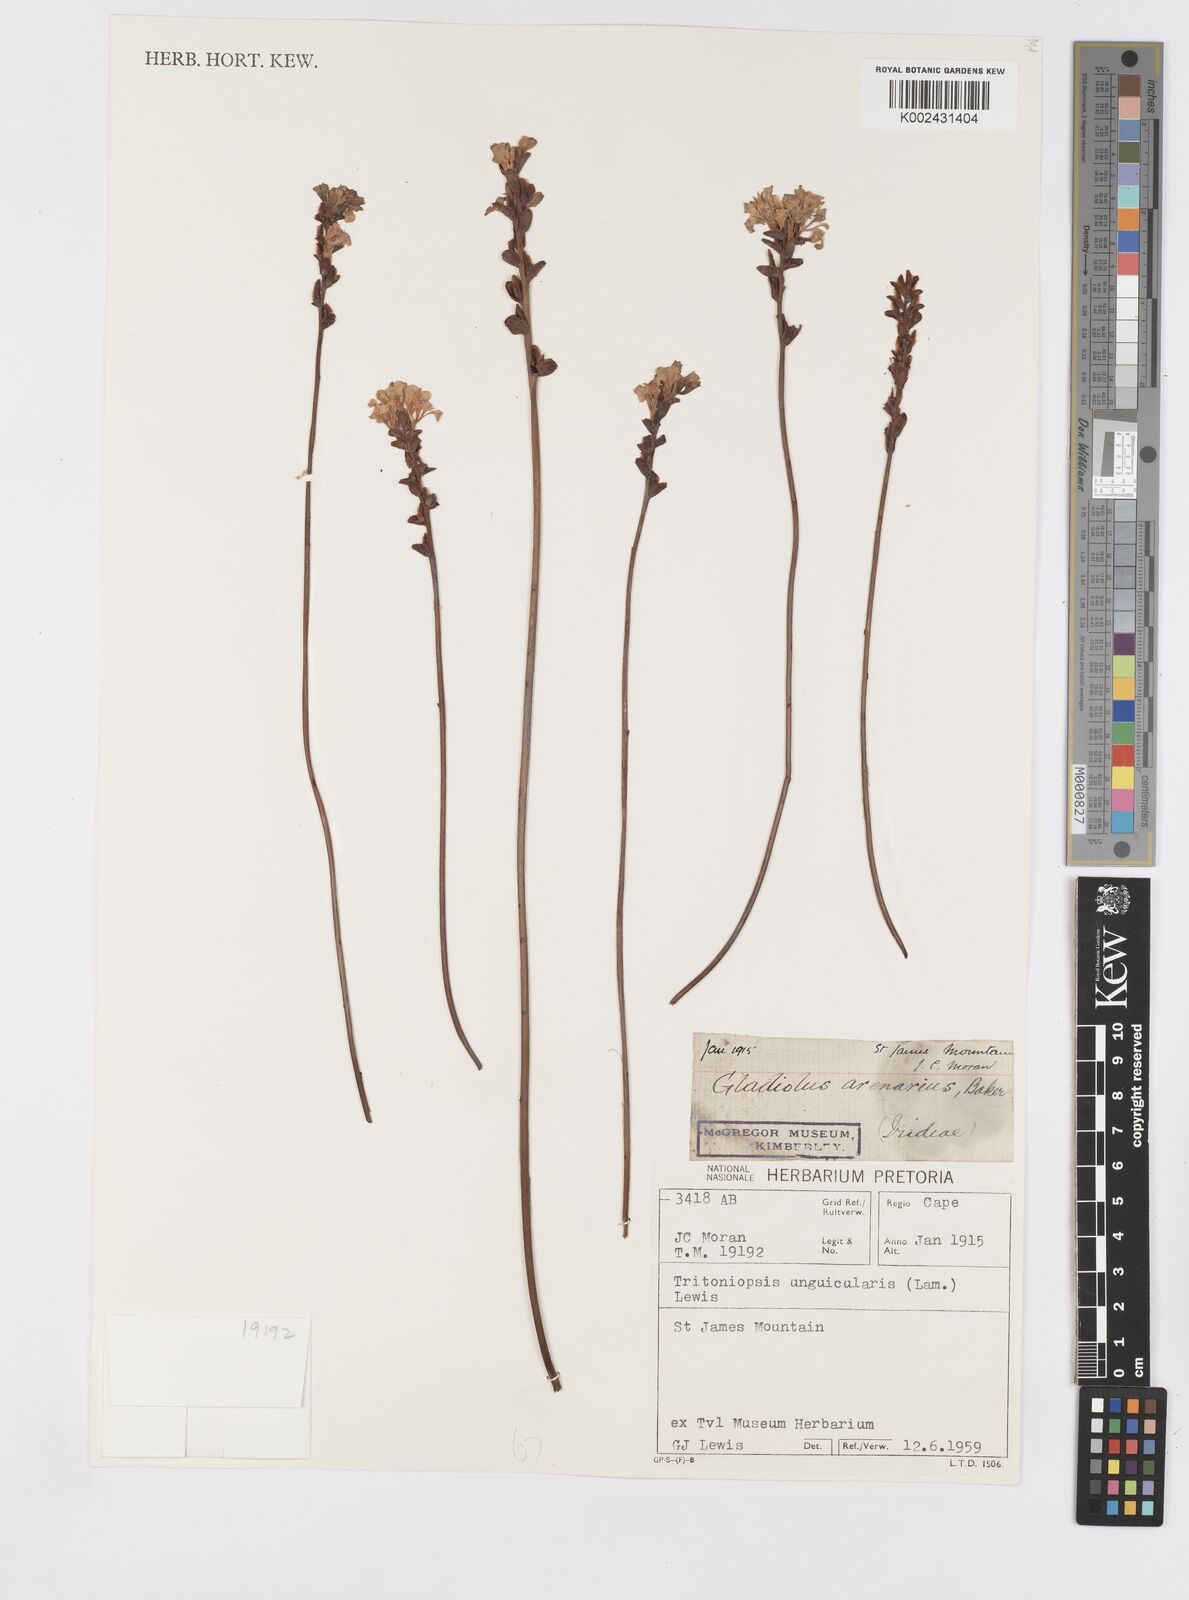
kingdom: Plantae
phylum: Tracheophyta
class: Liliopsida
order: Asparagales
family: Iridaceae
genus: Tritoniopsis
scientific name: Tritoniopsis unguicularis
